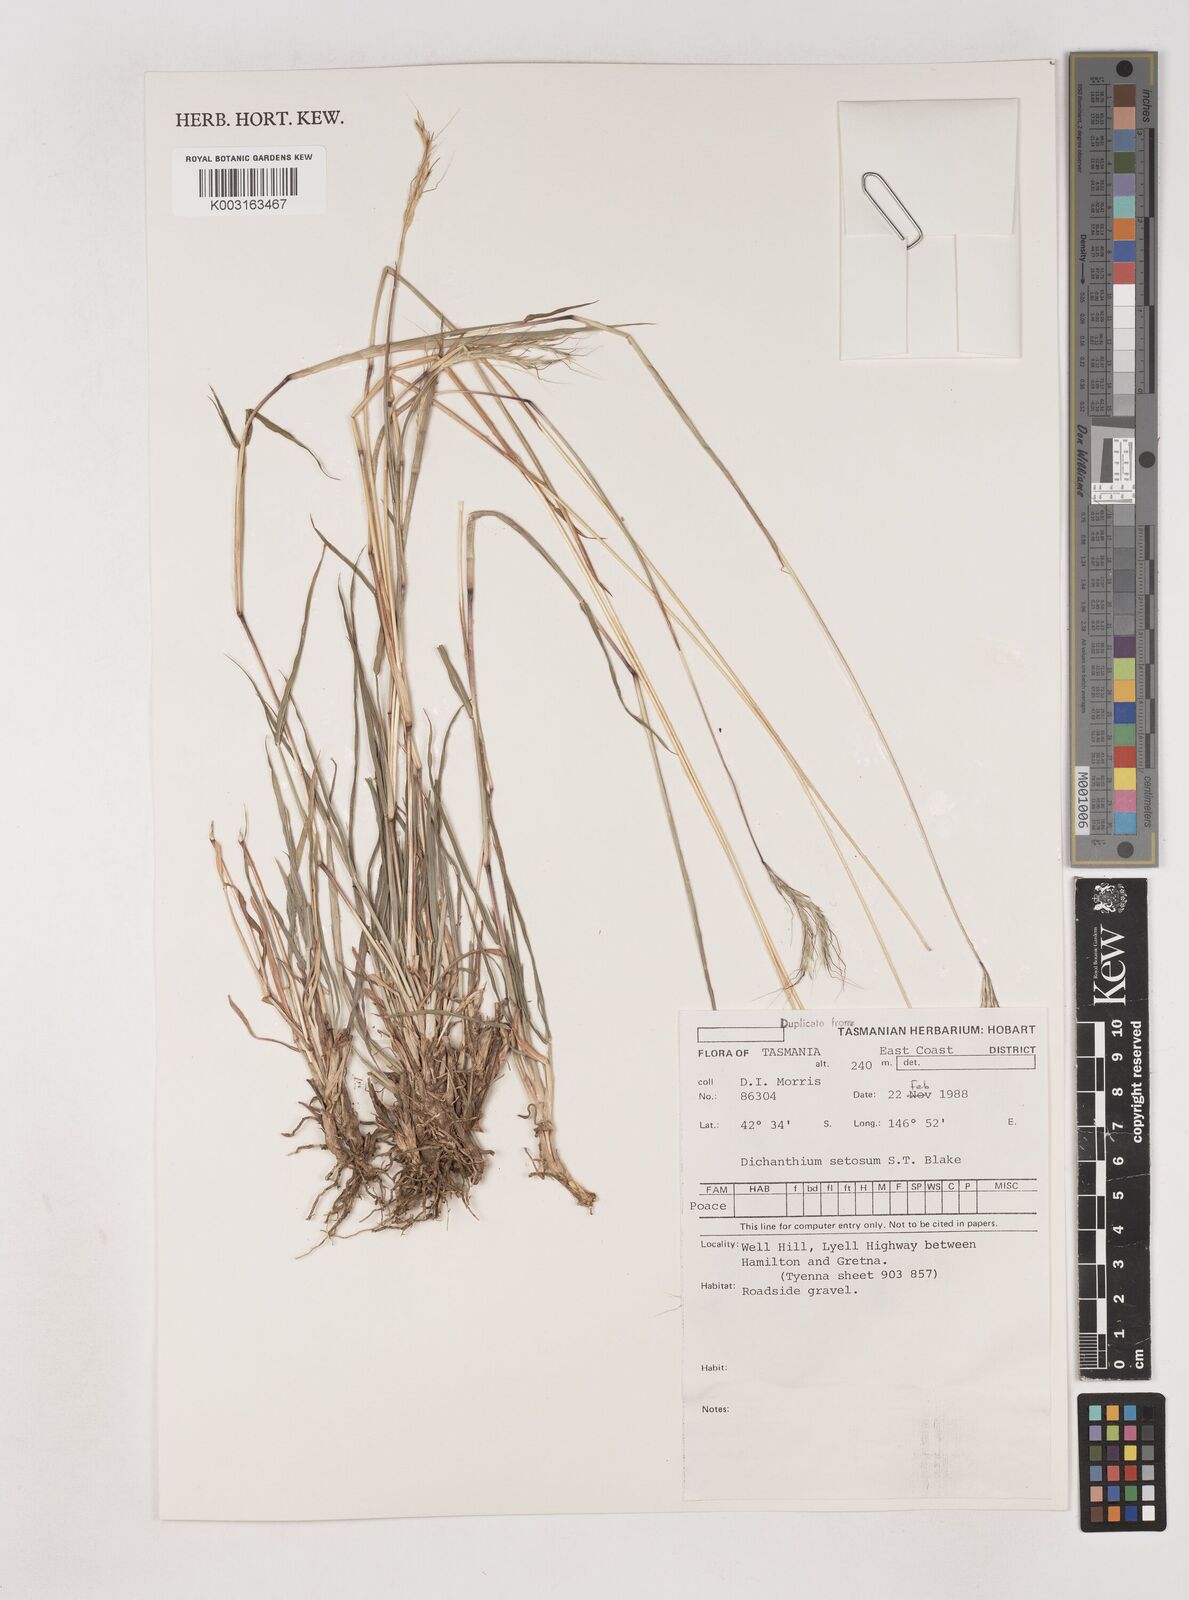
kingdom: Plantae
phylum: Tracheophyta
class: Liliopsida
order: Poales
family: Poaceae
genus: Dichanthium
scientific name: Dichanthium setosum
